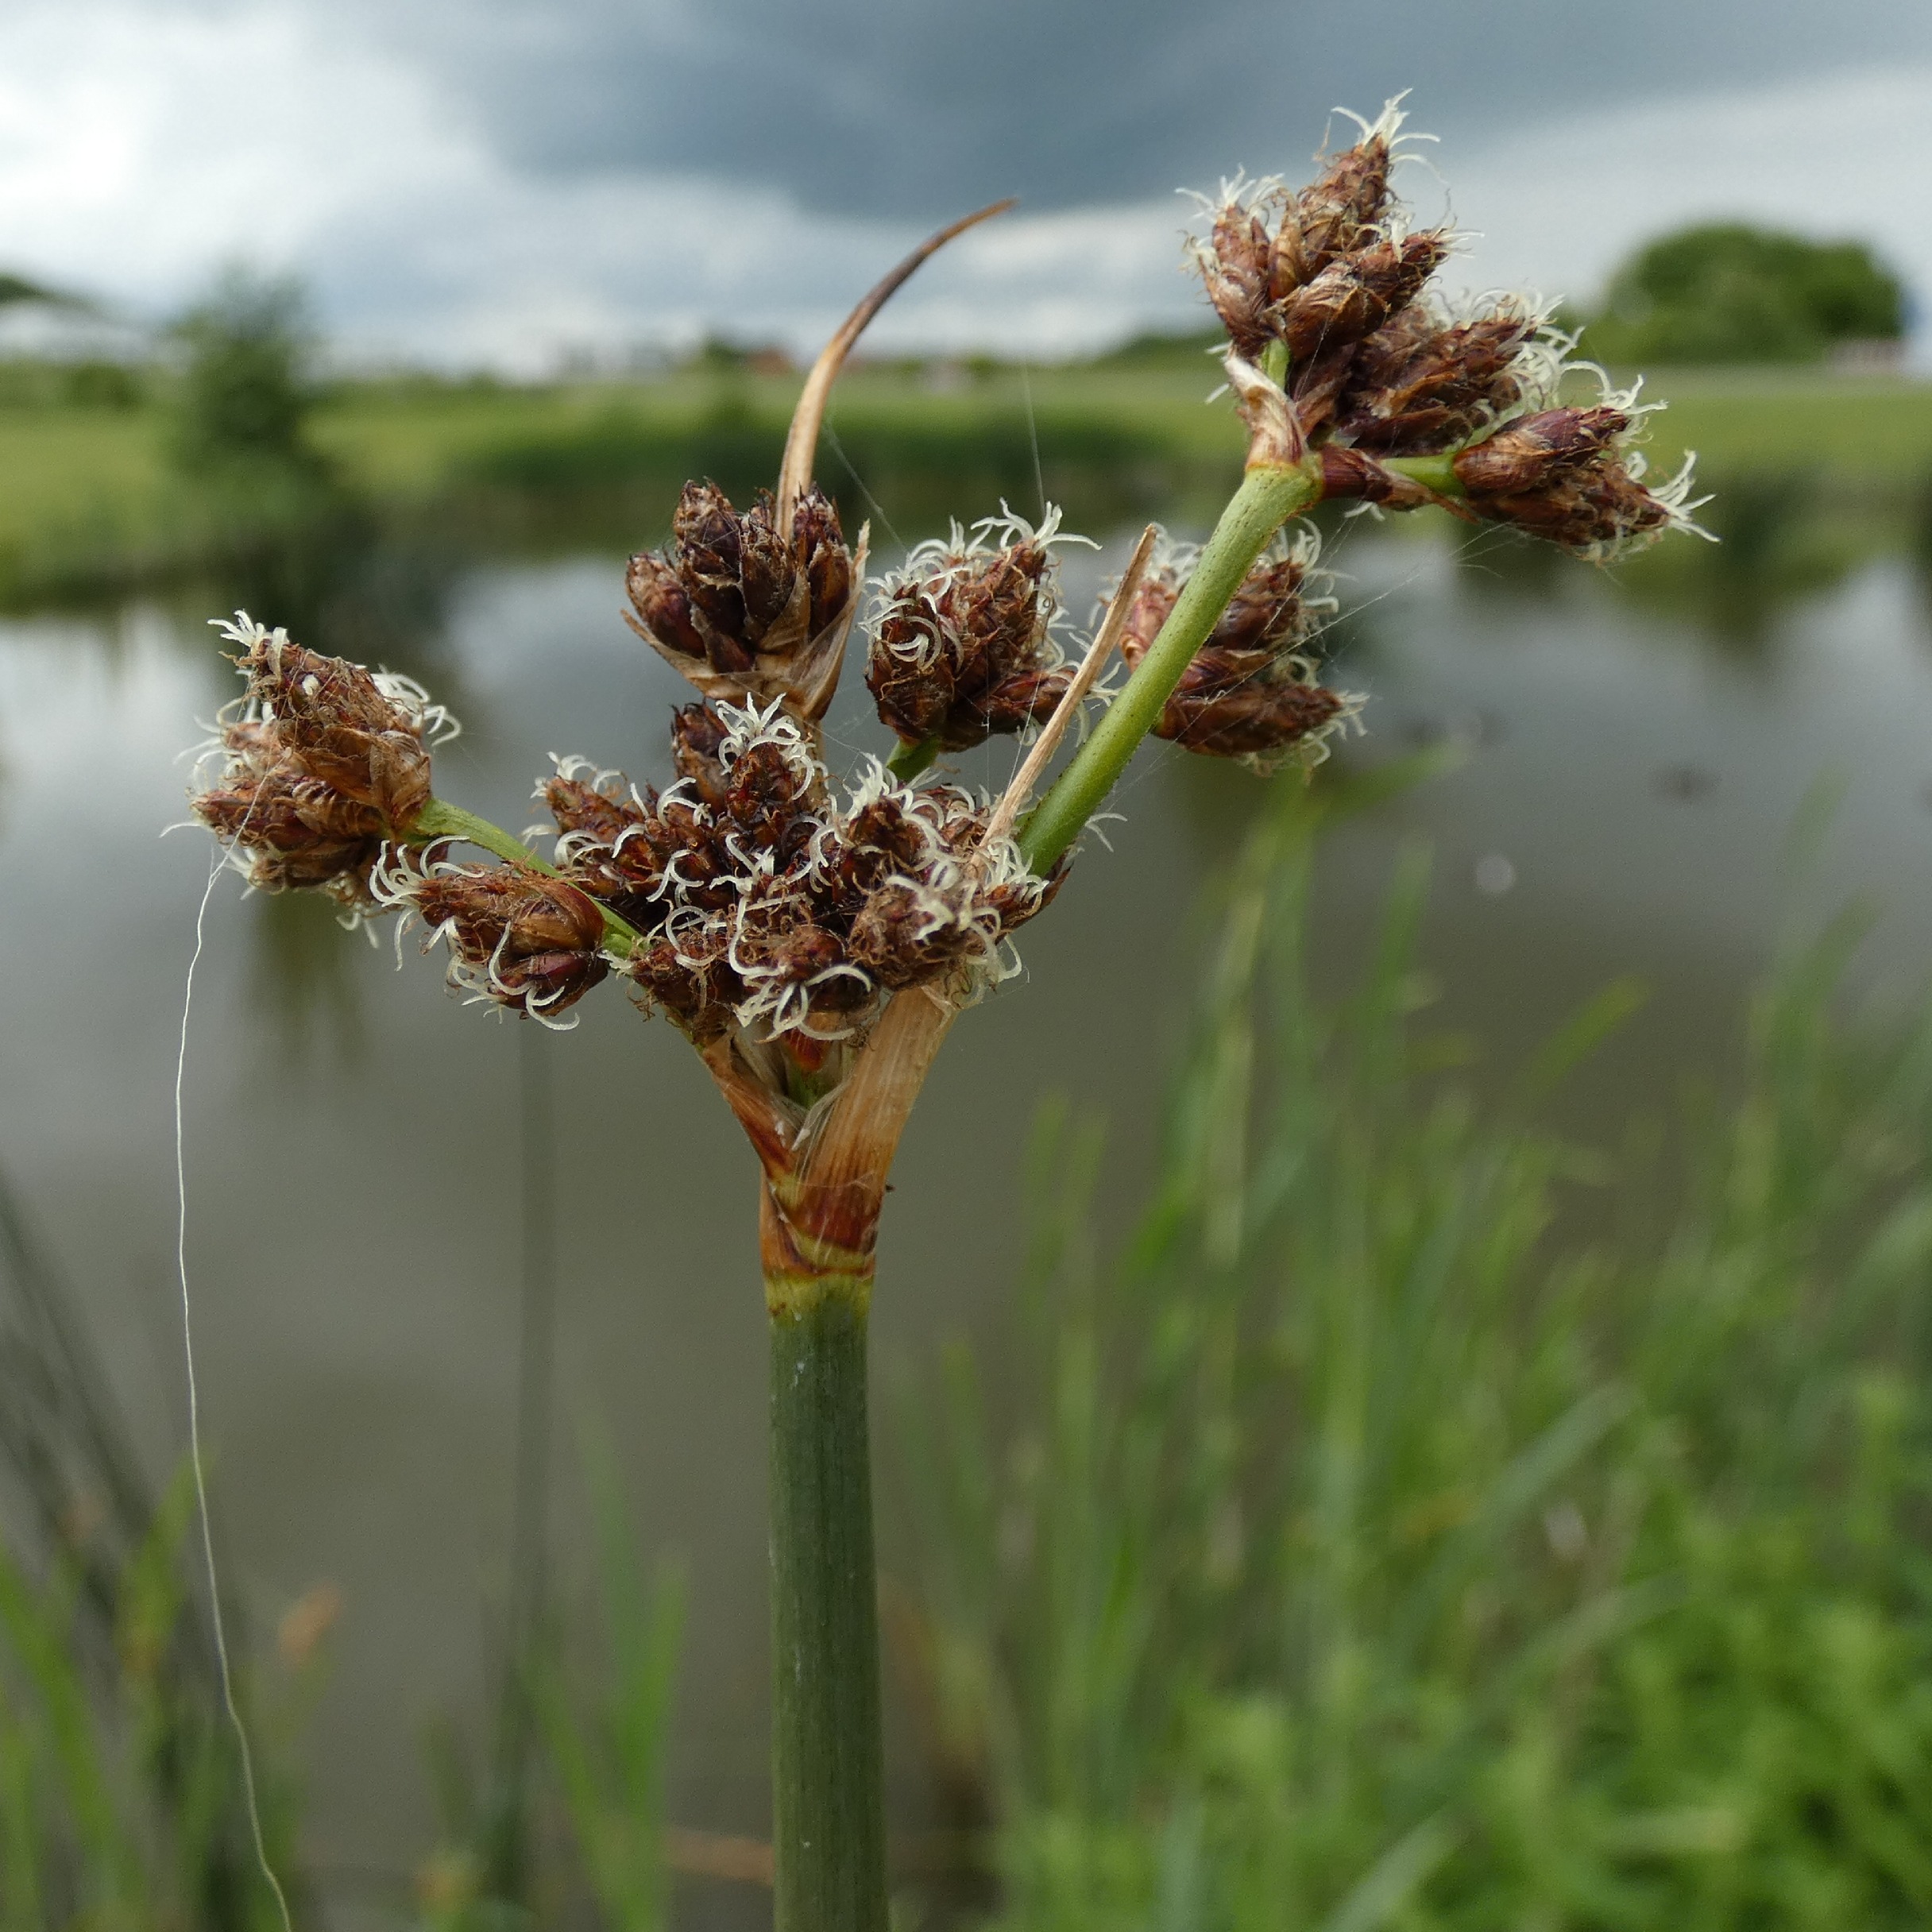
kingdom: Plantae
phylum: Tracheophyta
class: Liliopsida
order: Poales
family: Cyperaceae
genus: Schoenoplectus
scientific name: Schoenoplectus lacustris
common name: Sø-kogleaks
